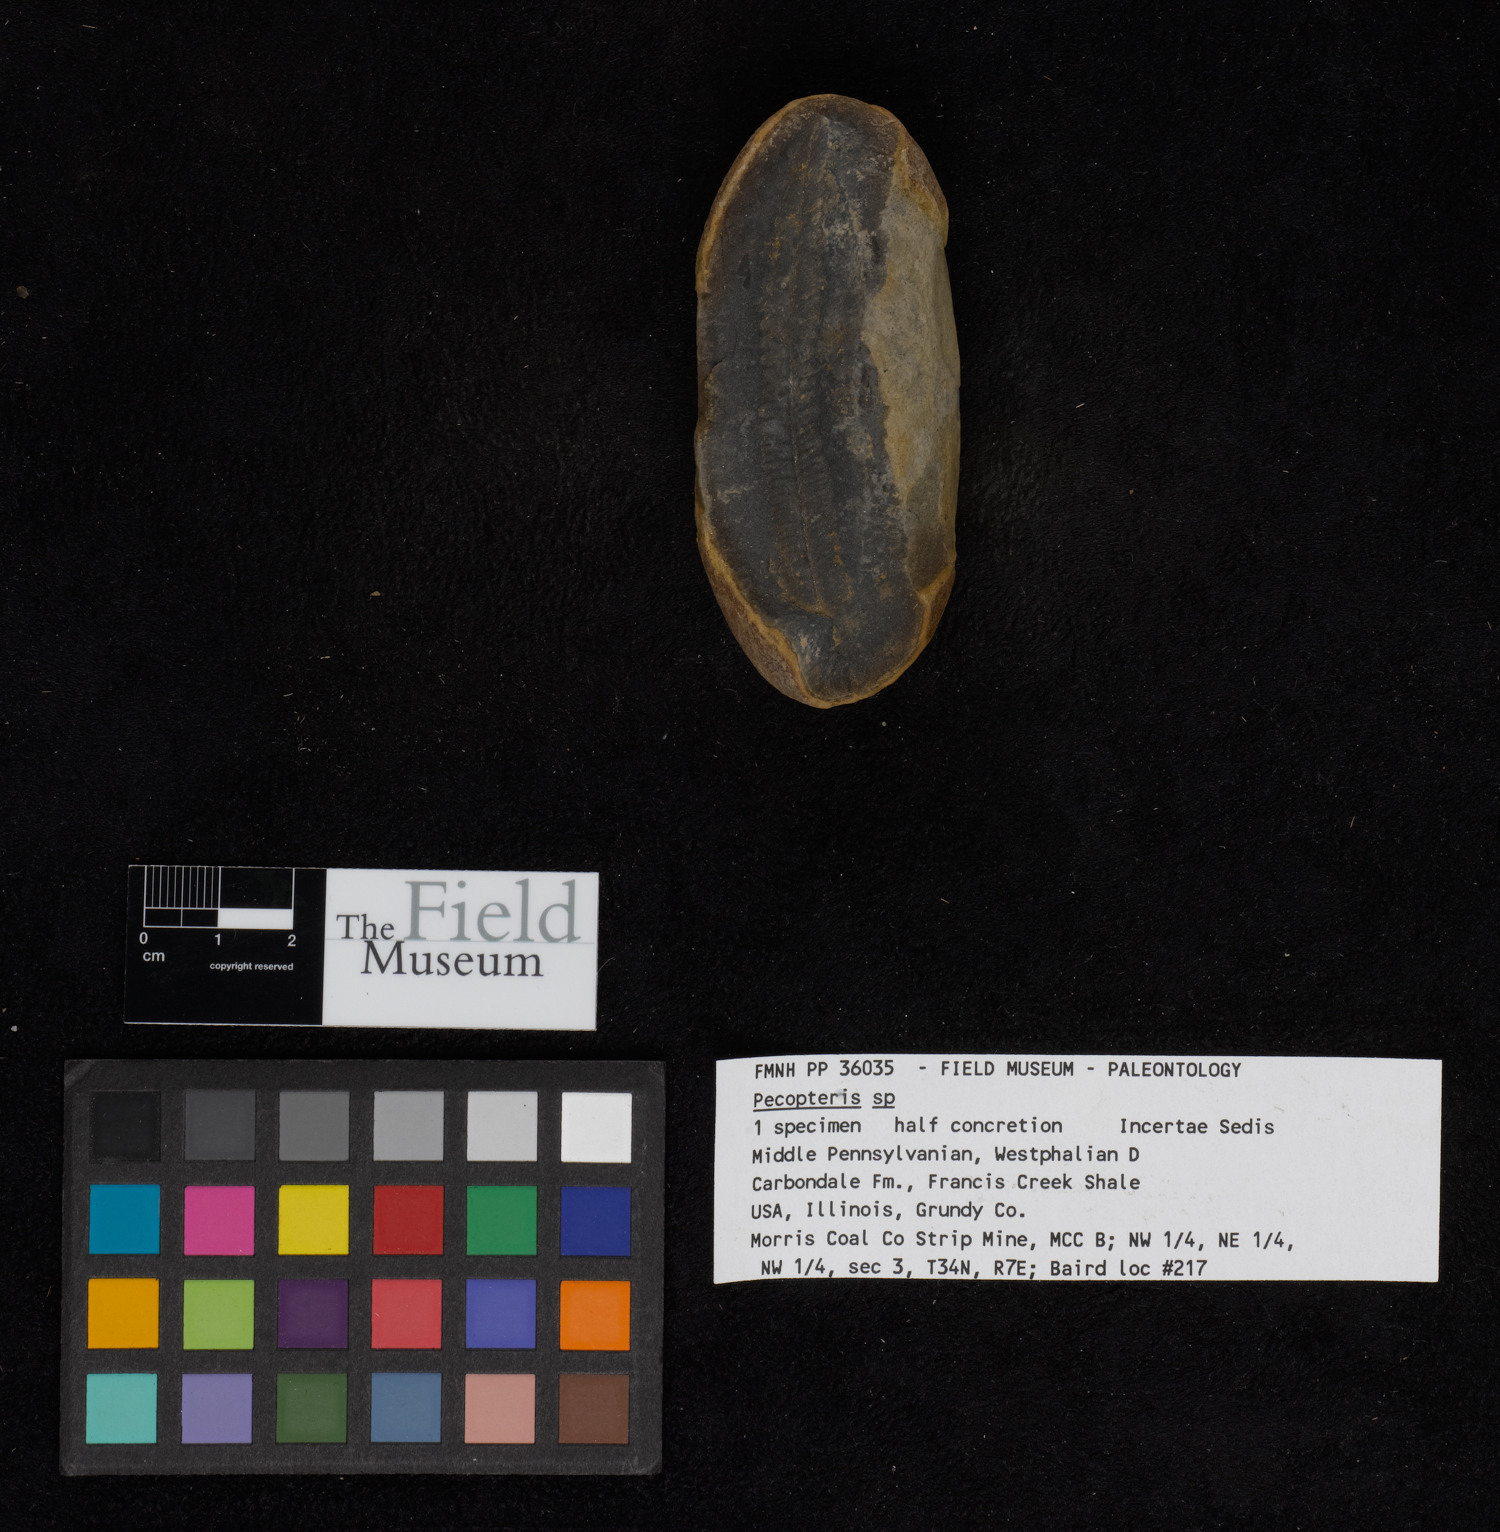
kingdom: Plantae
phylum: Tracheophyta
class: Polypodiopsida
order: Marattiales
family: Asterothecaceae
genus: Pecopteris
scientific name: Pecopteris
